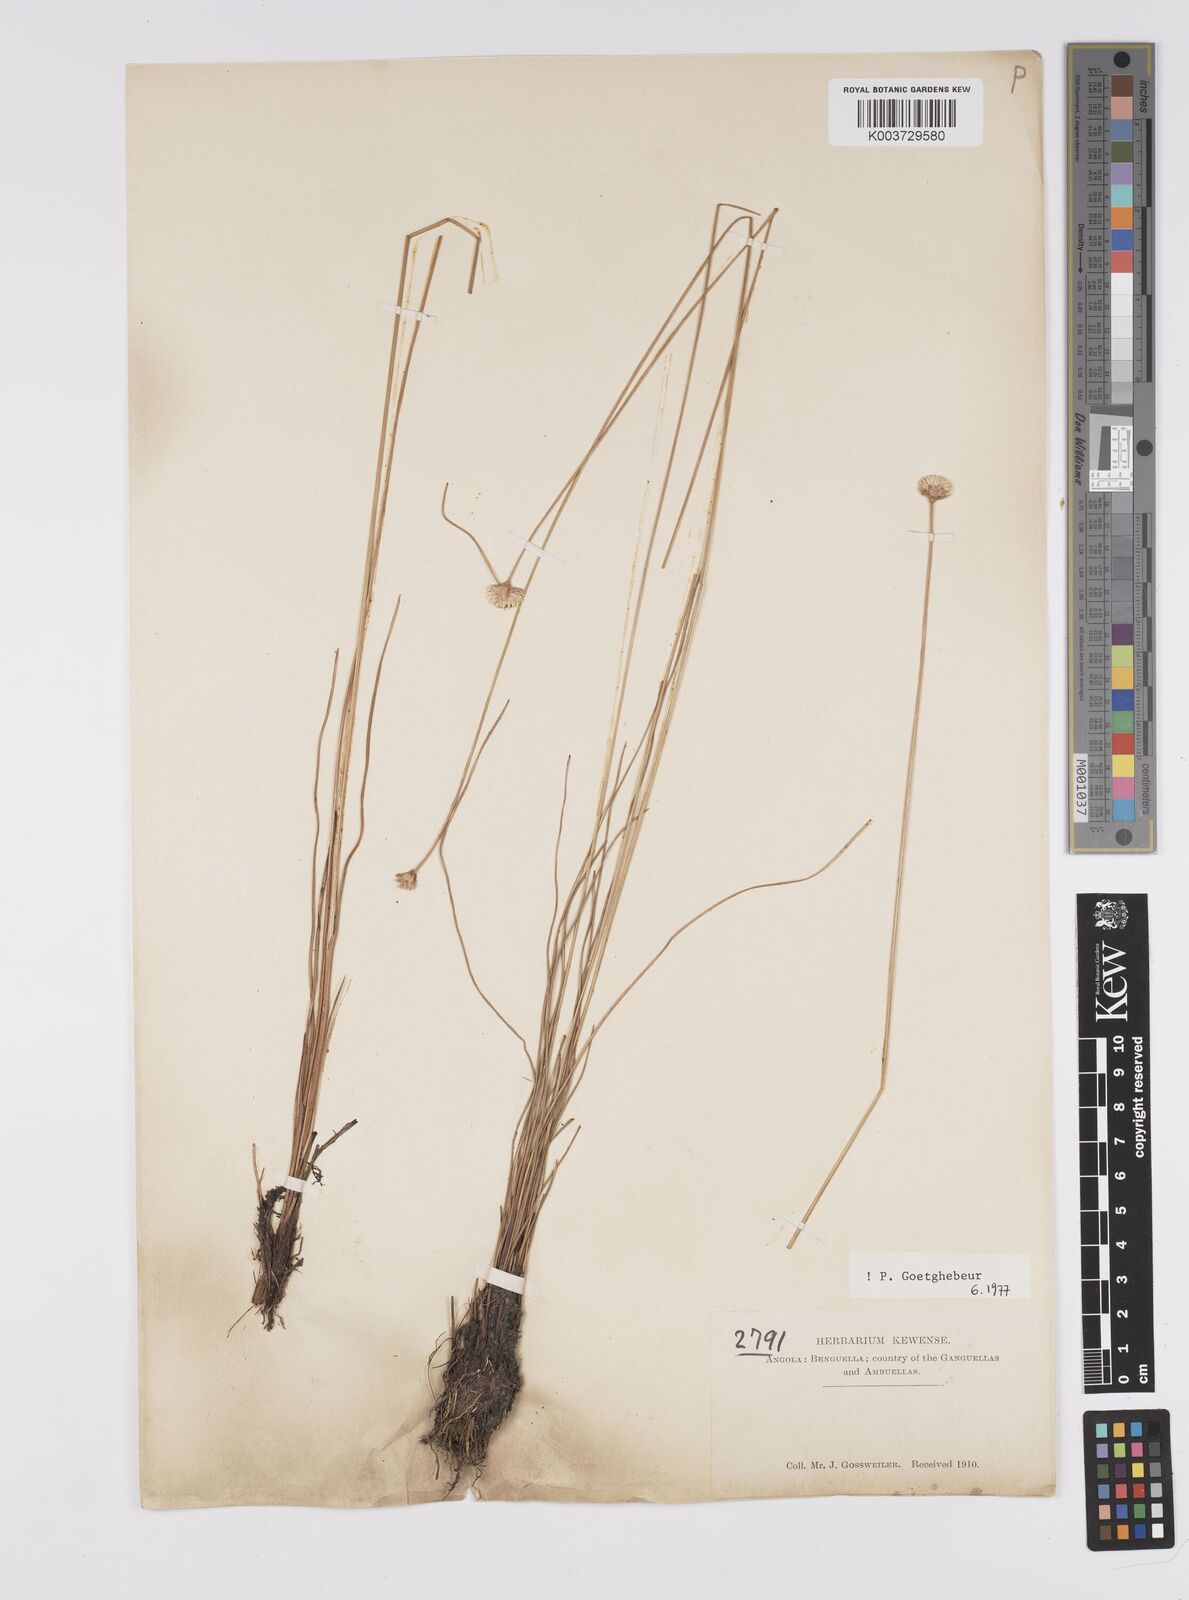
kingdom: Plantae
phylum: Tracheophyta
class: Liliopsida
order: Poales
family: Cyperaceae
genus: Cyperus
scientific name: Cyperus
